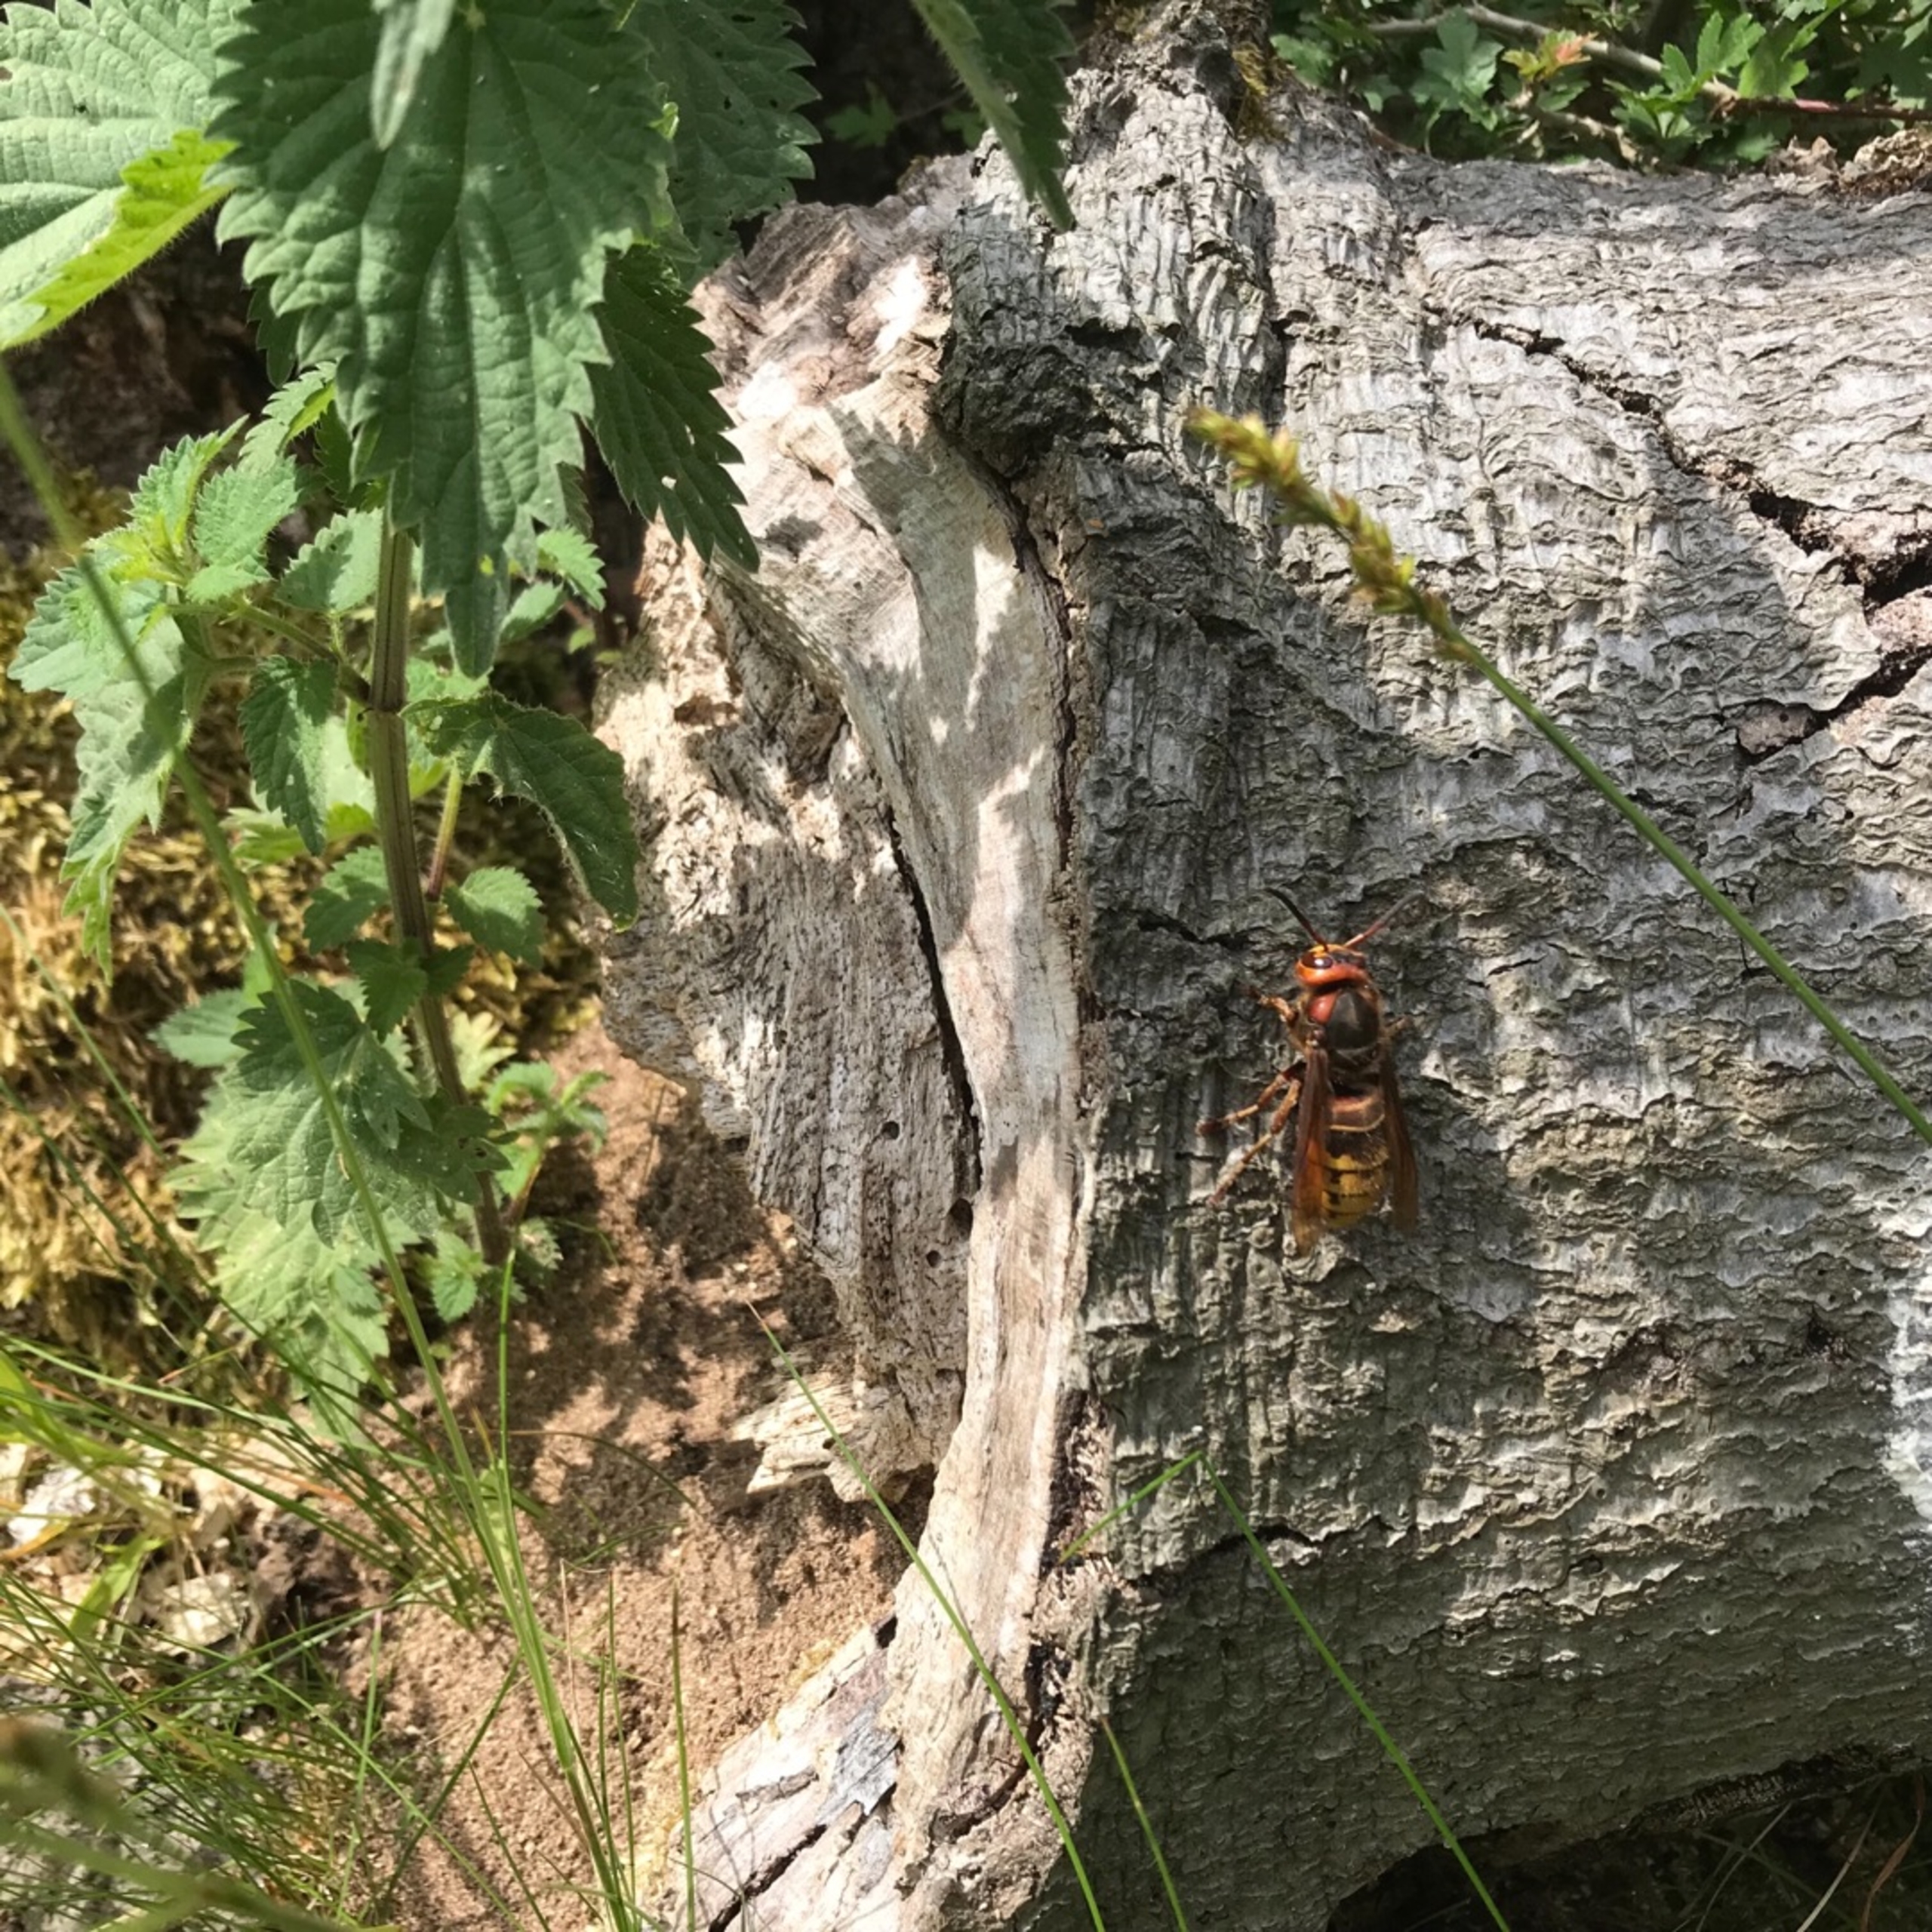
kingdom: Animalia
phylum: Arthropoda
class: Insecta
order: Hymenoptera
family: Vespidae
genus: Vespa
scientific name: Vespa crabro
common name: Stor gedehams
